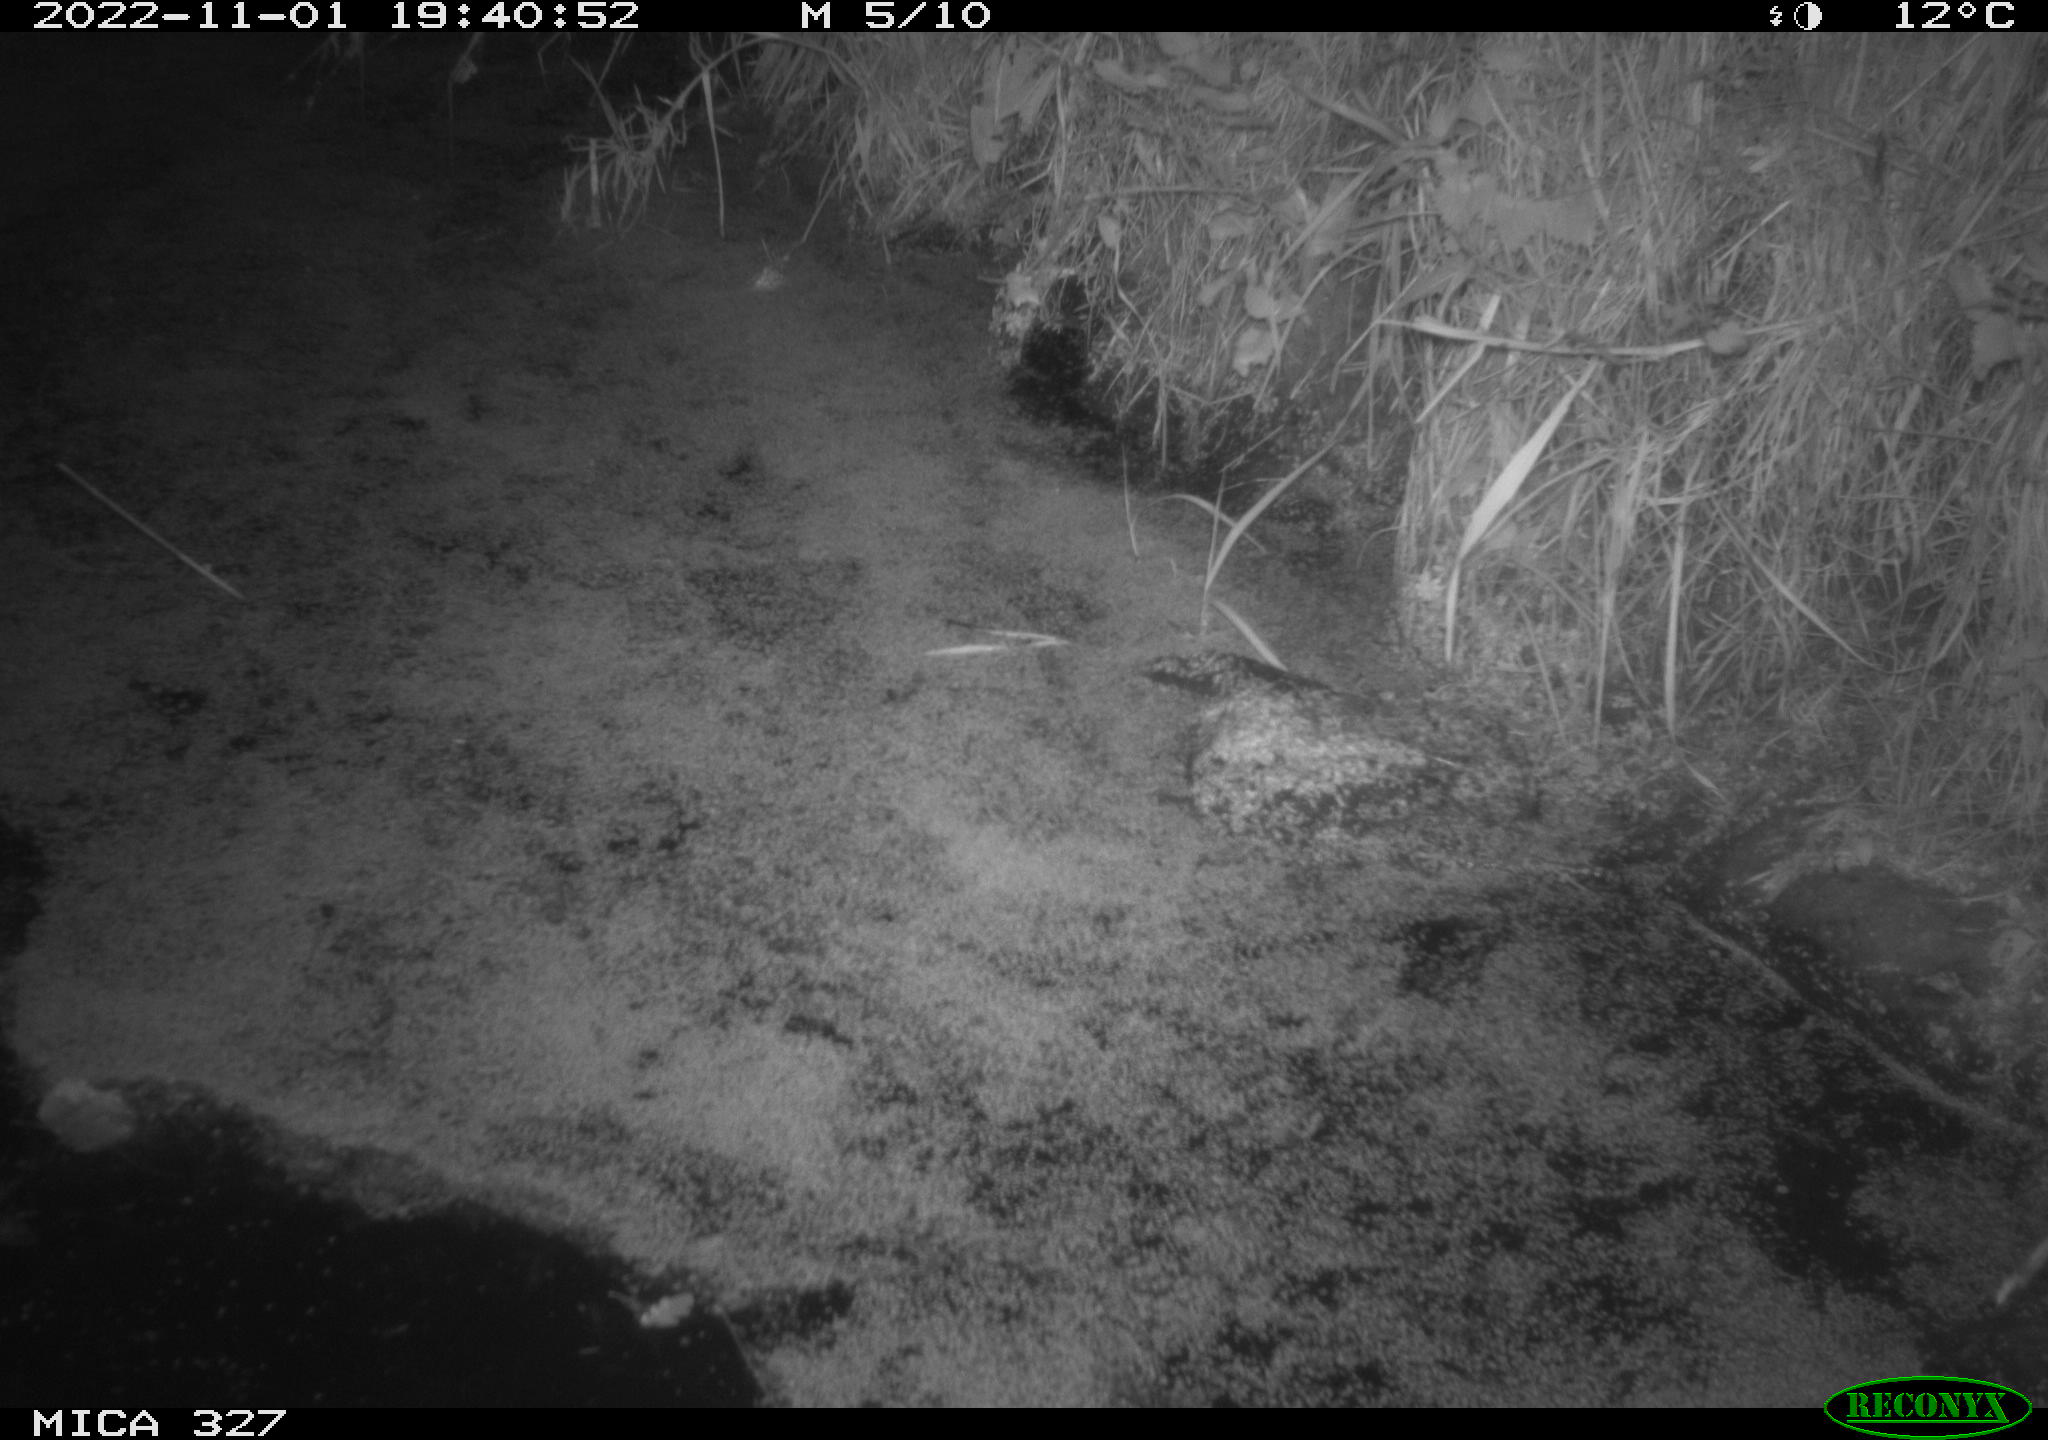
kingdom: Animalia
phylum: Chordata
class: Mammalia
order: Rodentia
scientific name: Rodentia
